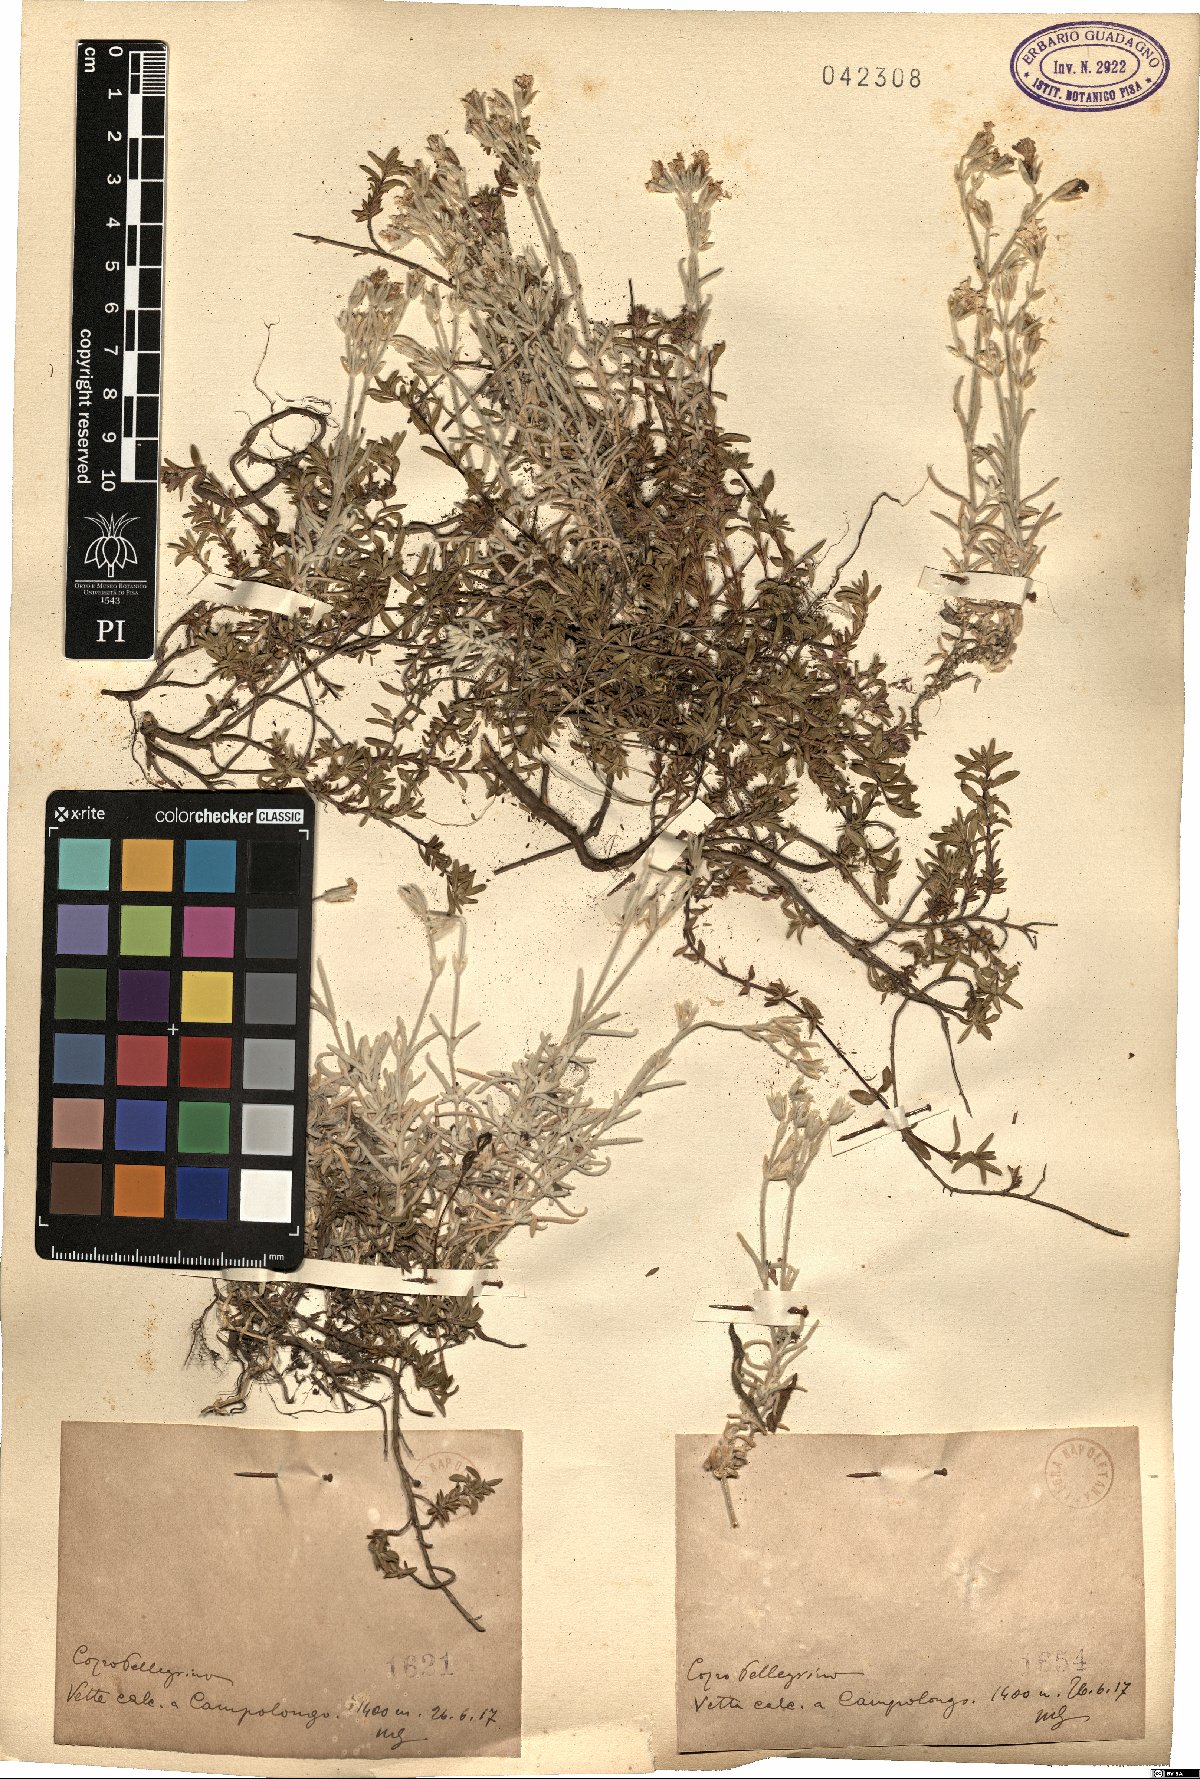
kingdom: Plantae
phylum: Tracheophyta
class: Magnoliopsida
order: Caryophyllales
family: Caryophyllaceae
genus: Cerastium
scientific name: Cerastium
